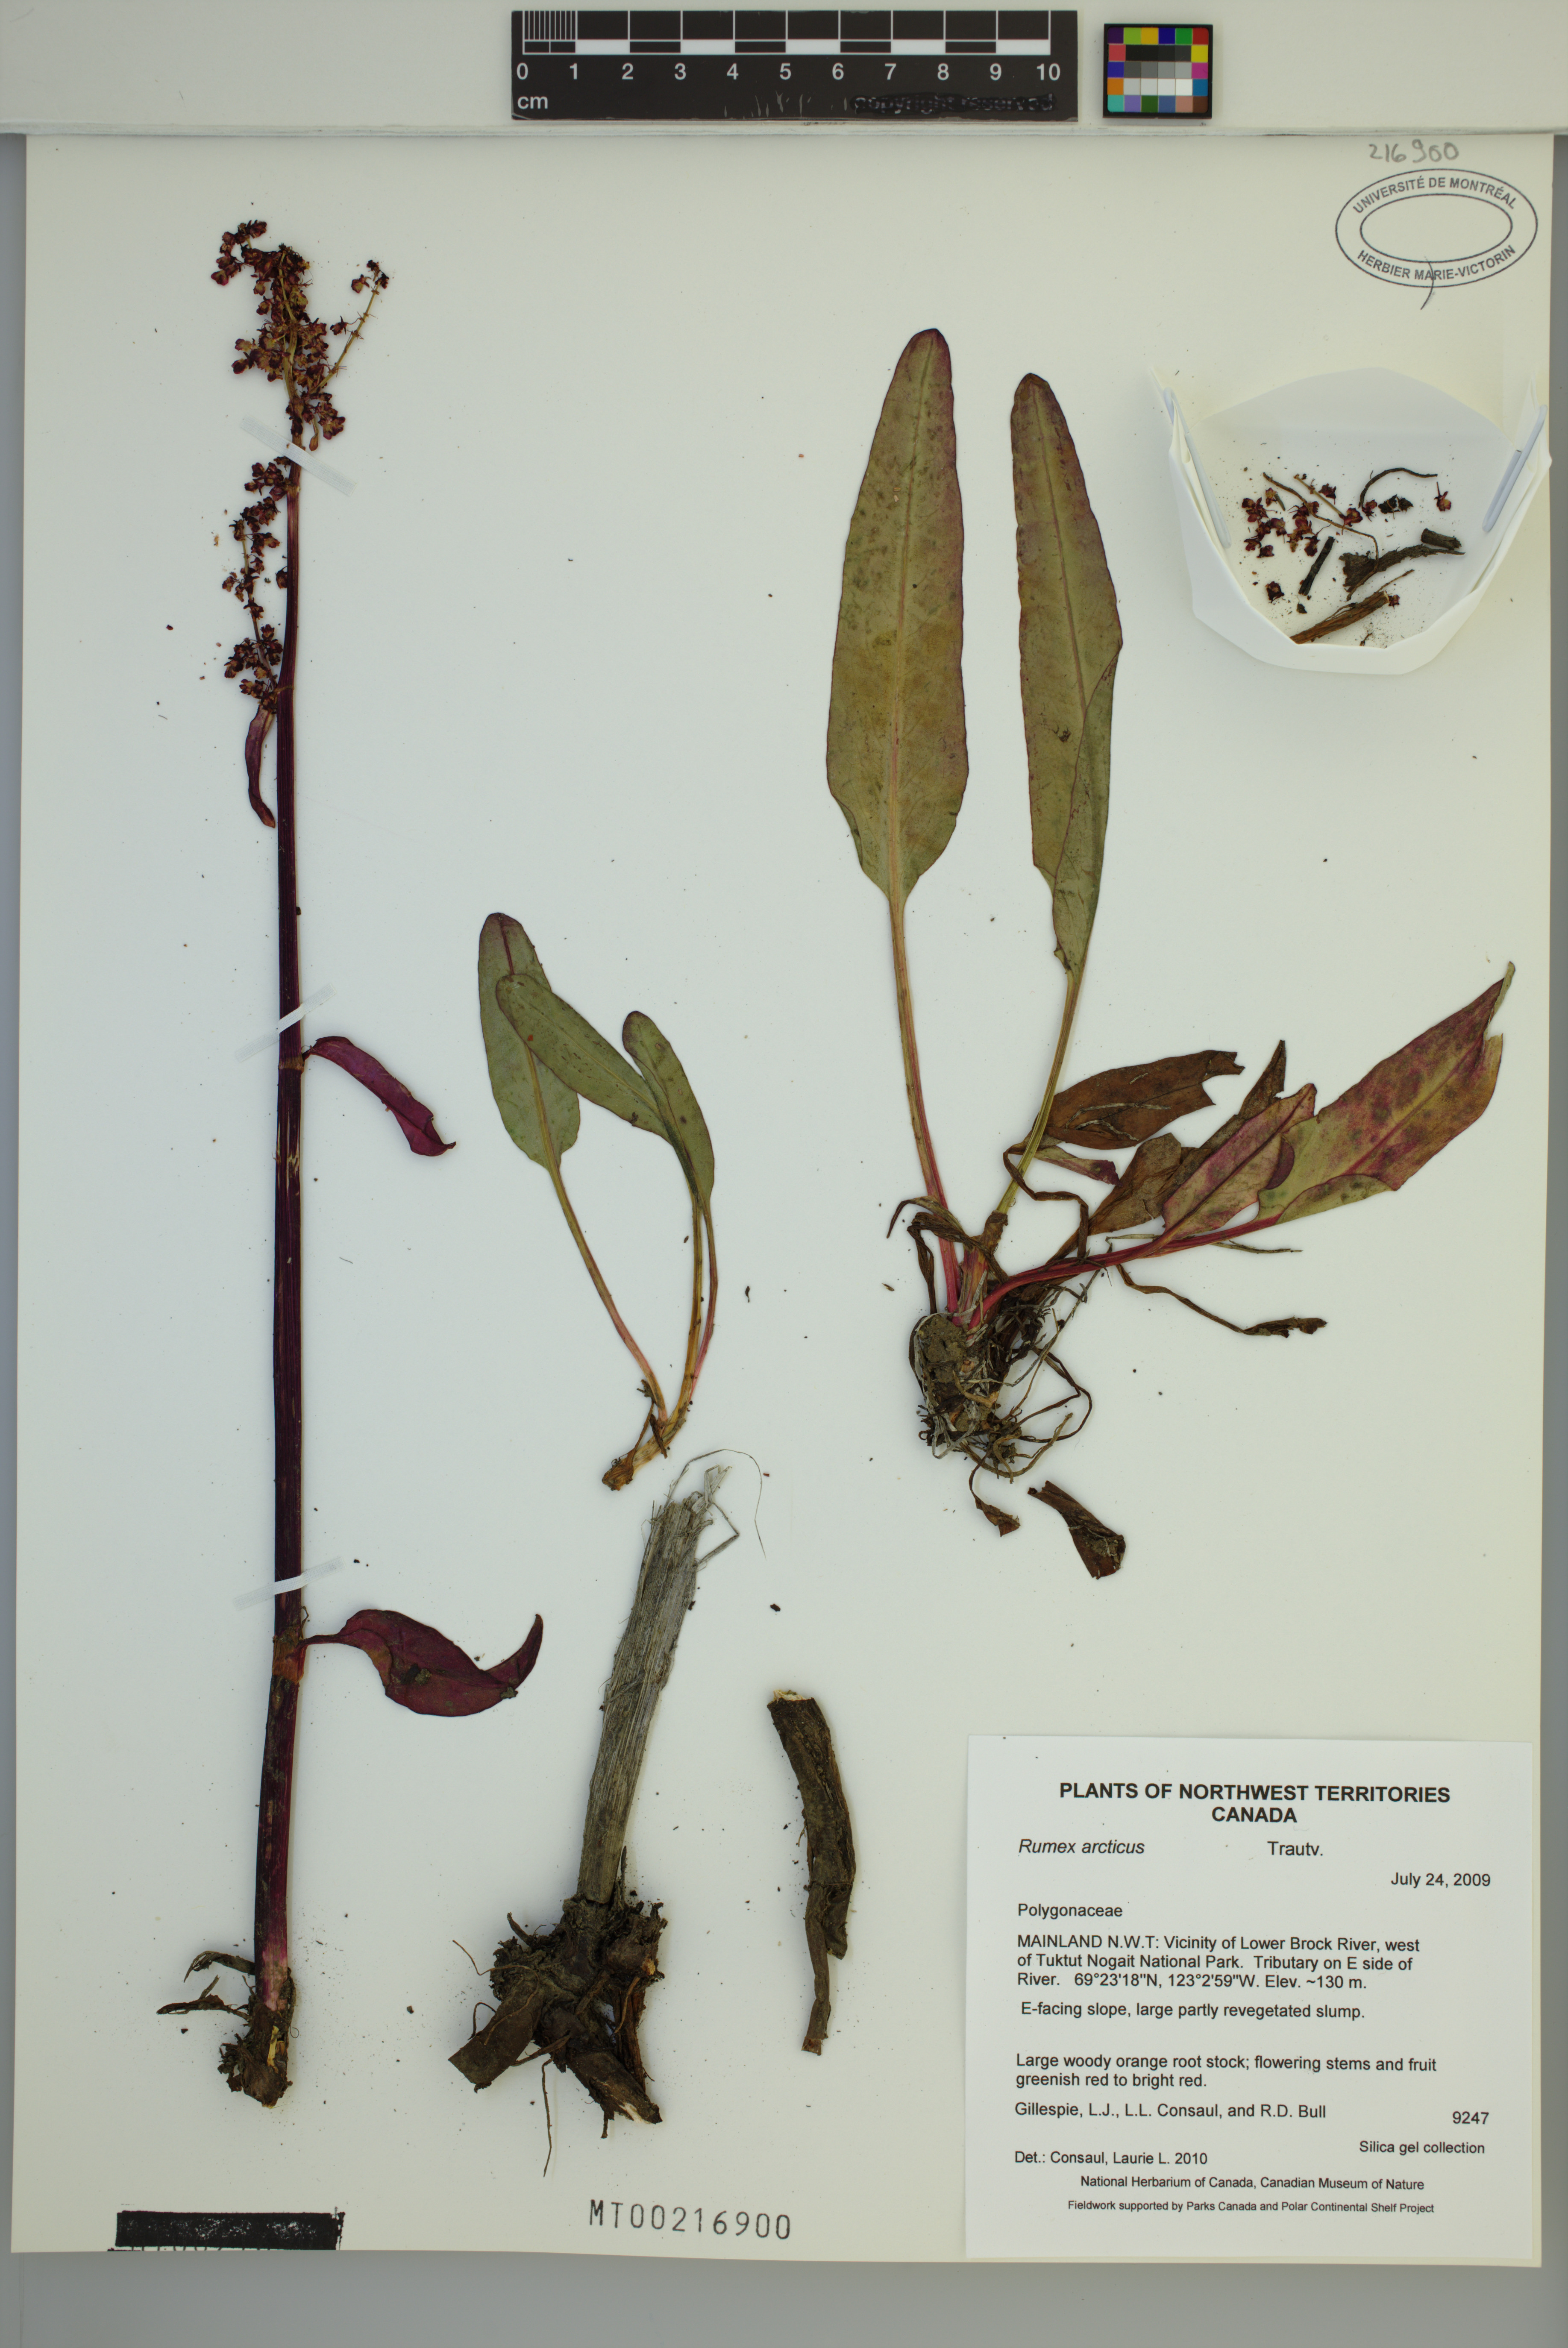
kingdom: Plantae
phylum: Tracheophyta
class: Magnoliopsida
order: Caryophyllales
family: Polygonaceae
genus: Rumex
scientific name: Rumex arcticus
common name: Arctic dock
